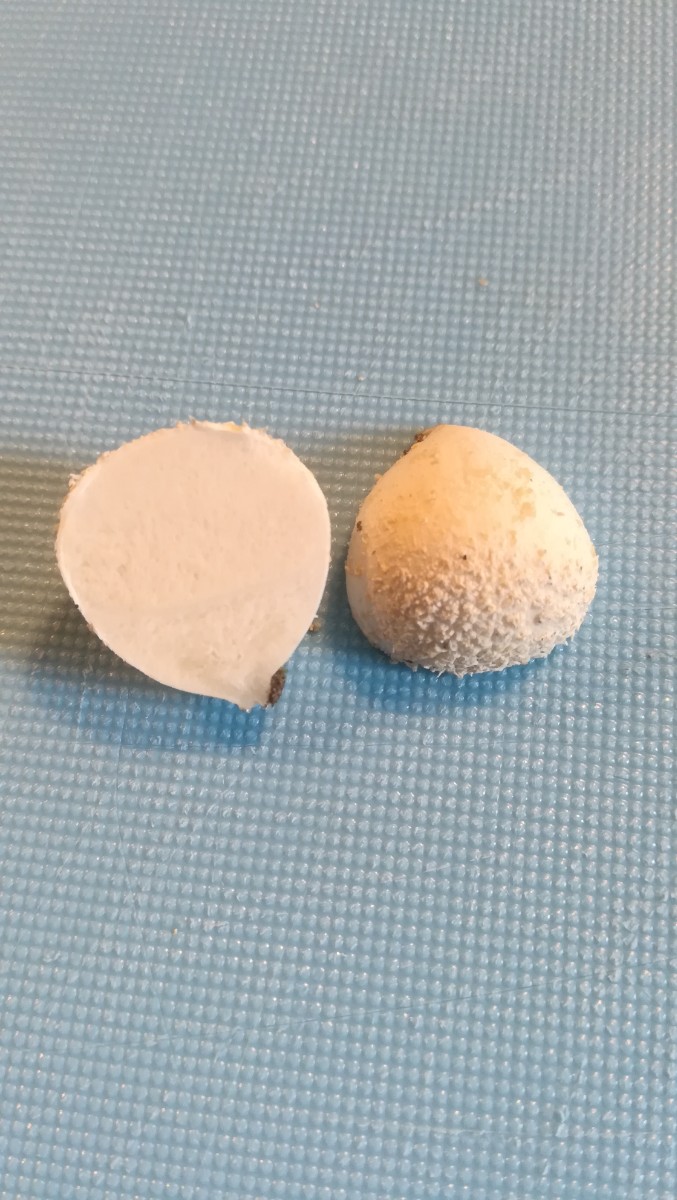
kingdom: Fungi
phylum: Basidiomycota
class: Agaricomycetes
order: Agaricales
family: Lycoperdaceae
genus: Lycoperdon
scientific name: Lycoperdon pratense
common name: flad støvbold
